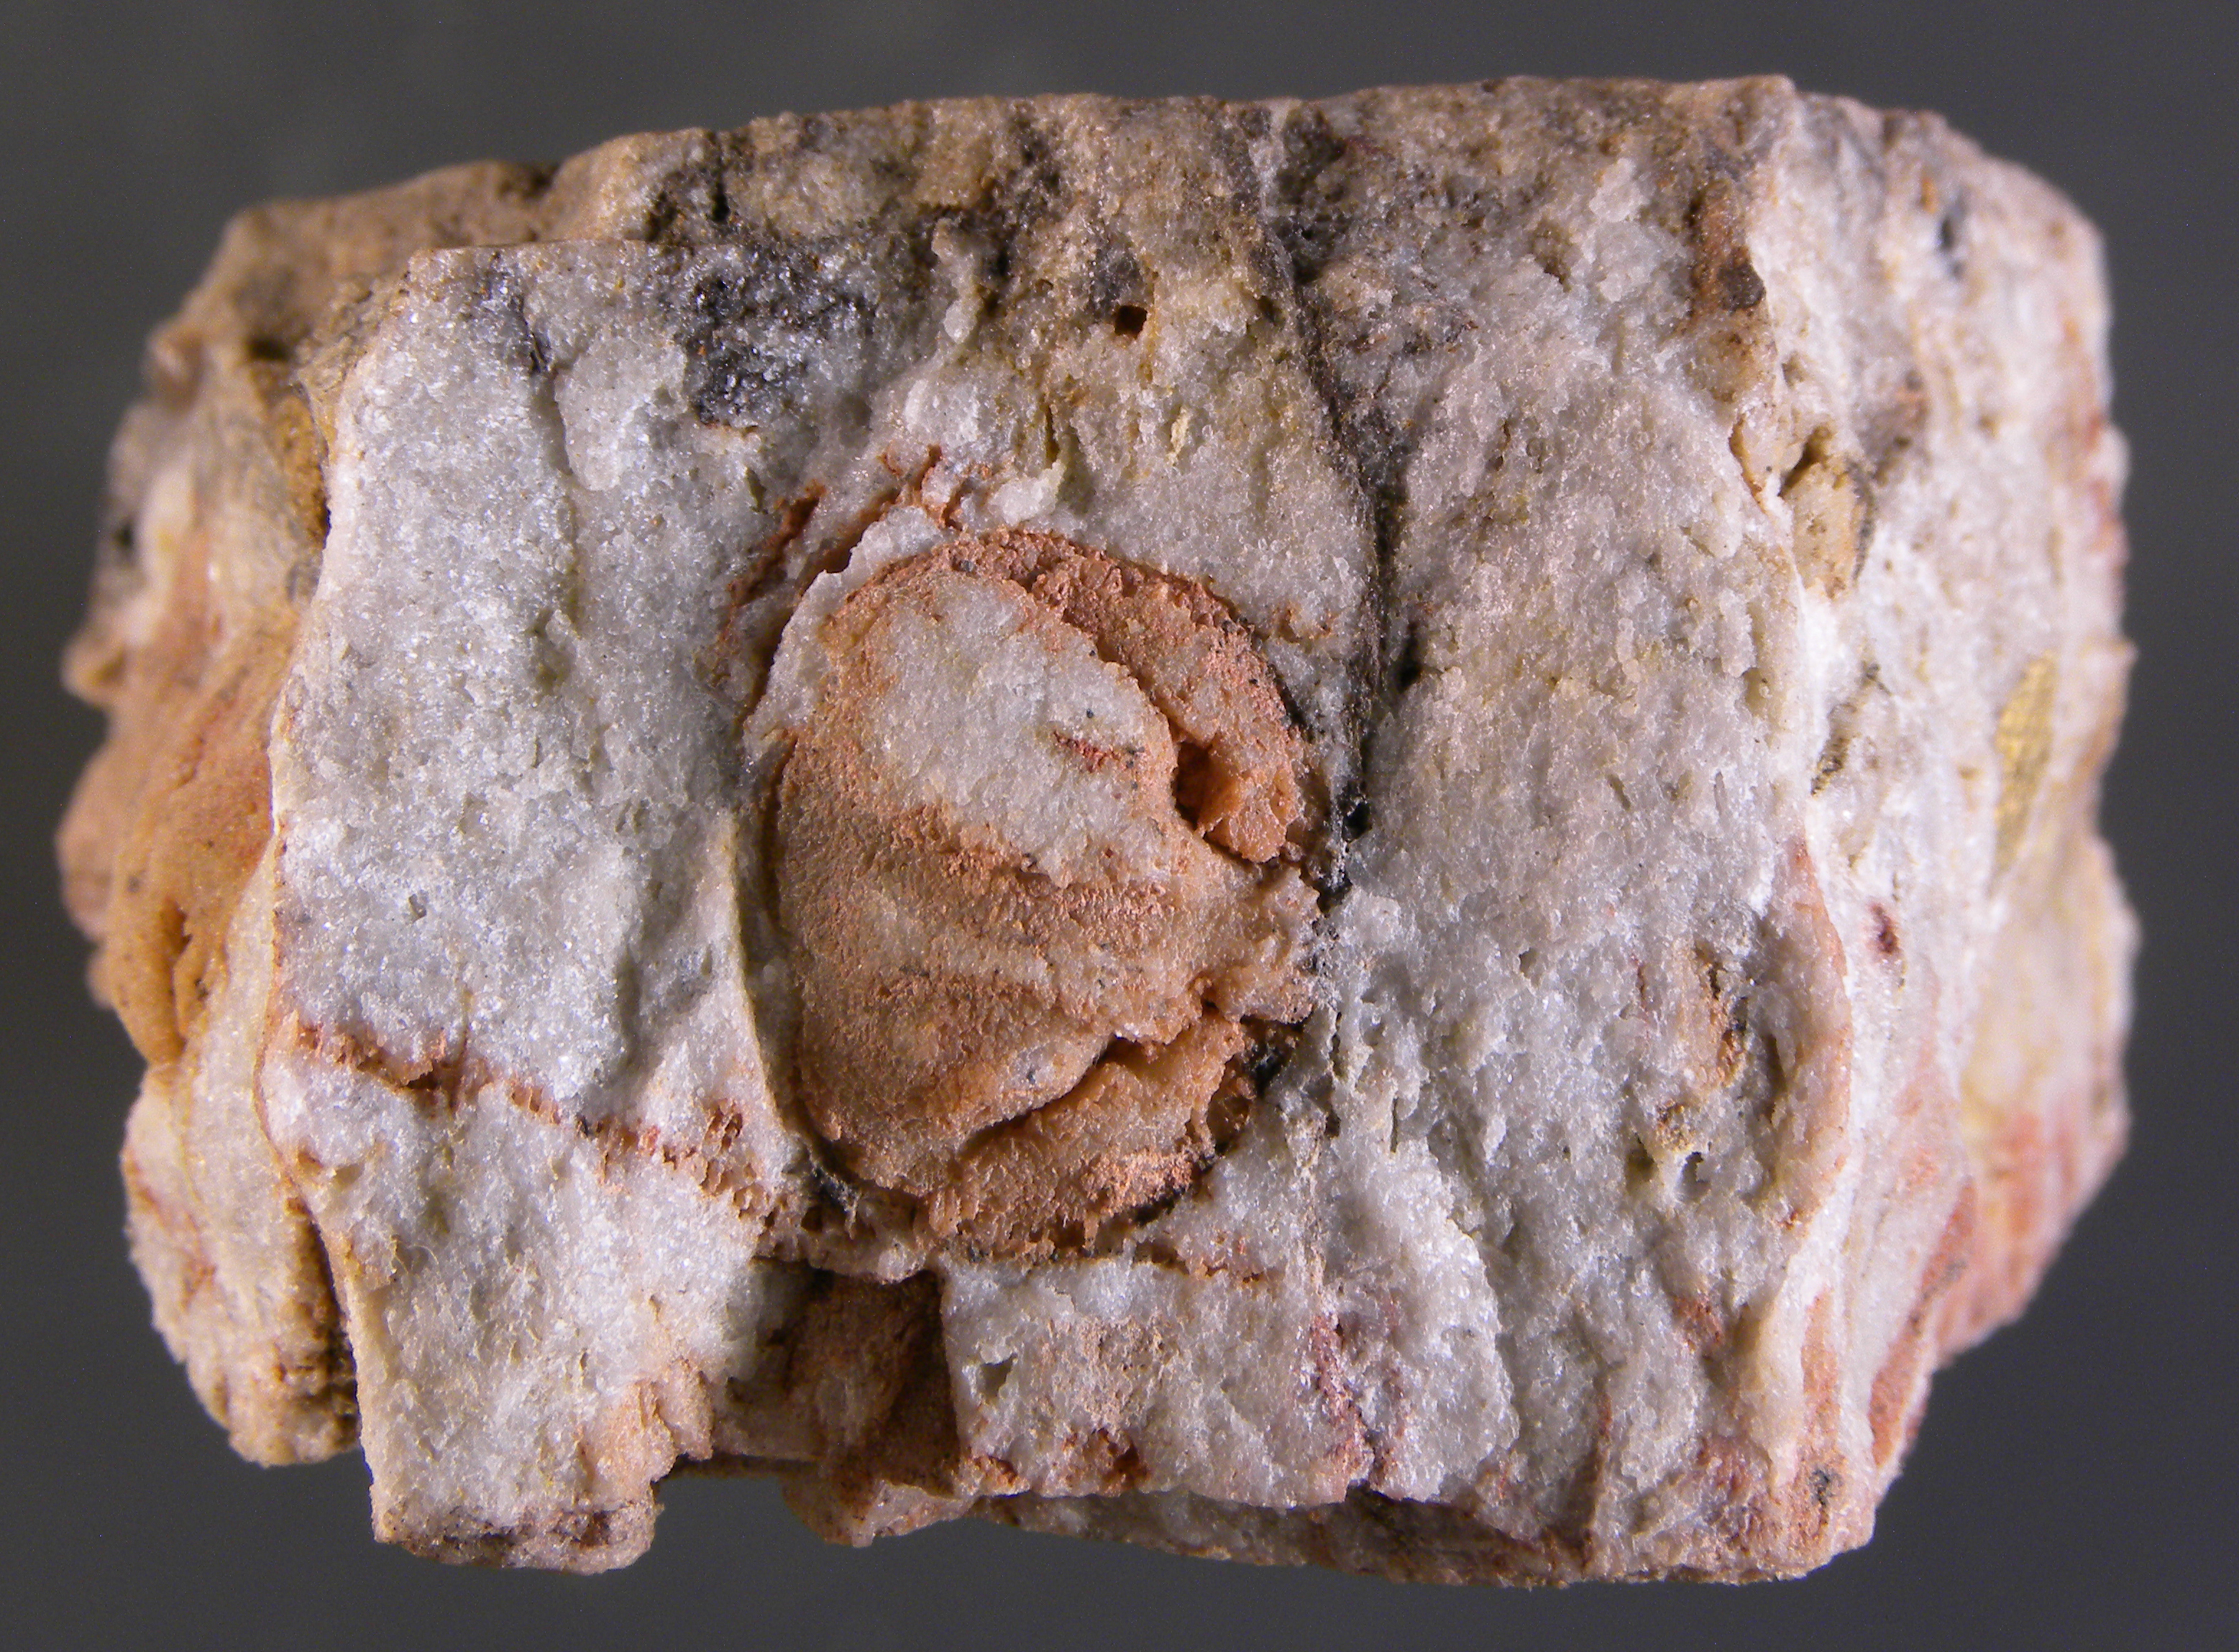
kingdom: Animalia
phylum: Brachiopoda
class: Rhynchonellata
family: Schizophoriidae
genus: Schizophoria
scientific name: Schizophoria
